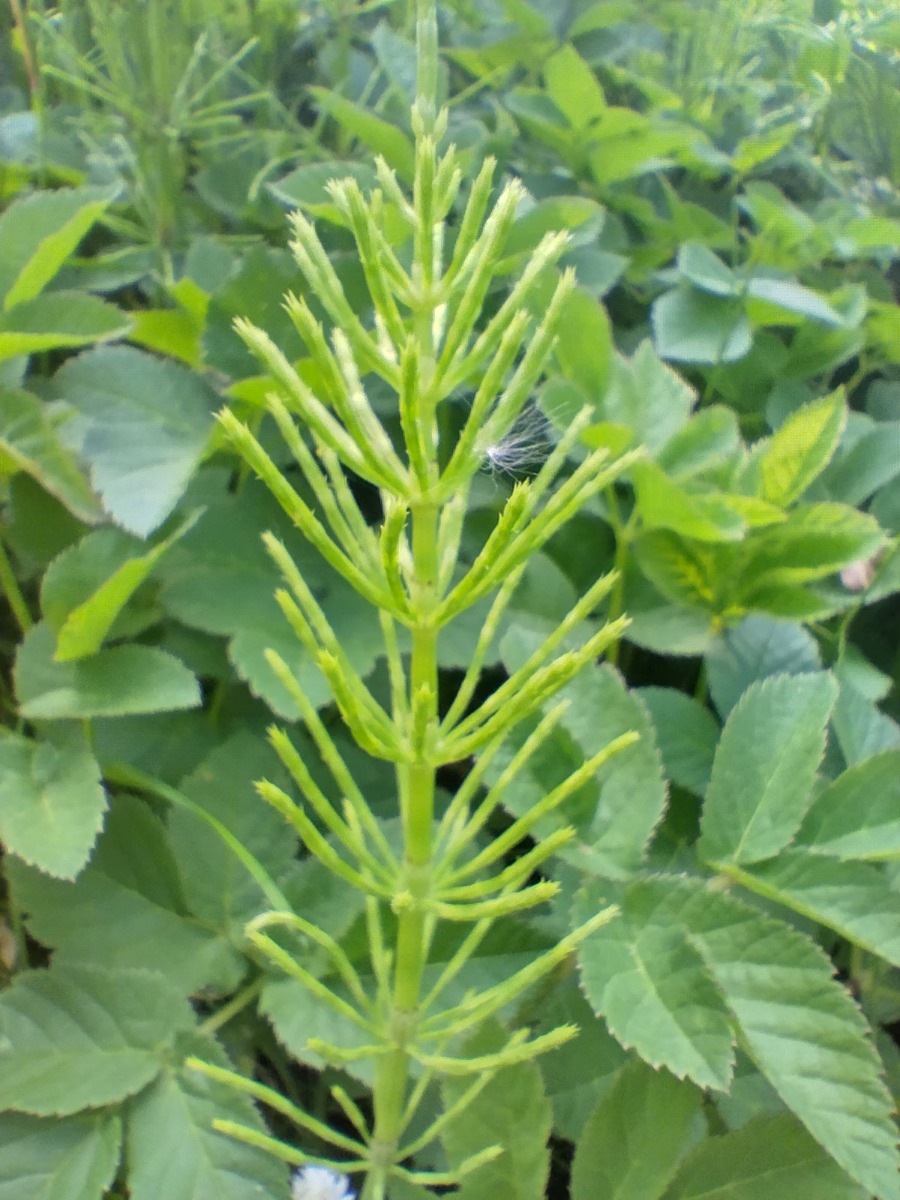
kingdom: Plantae
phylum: Tracheophyta
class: Polypodiopsida
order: Equisetales
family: Equisetaceae
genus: Equisetum
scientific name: Equisetum arvense
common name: Ager-padderok
